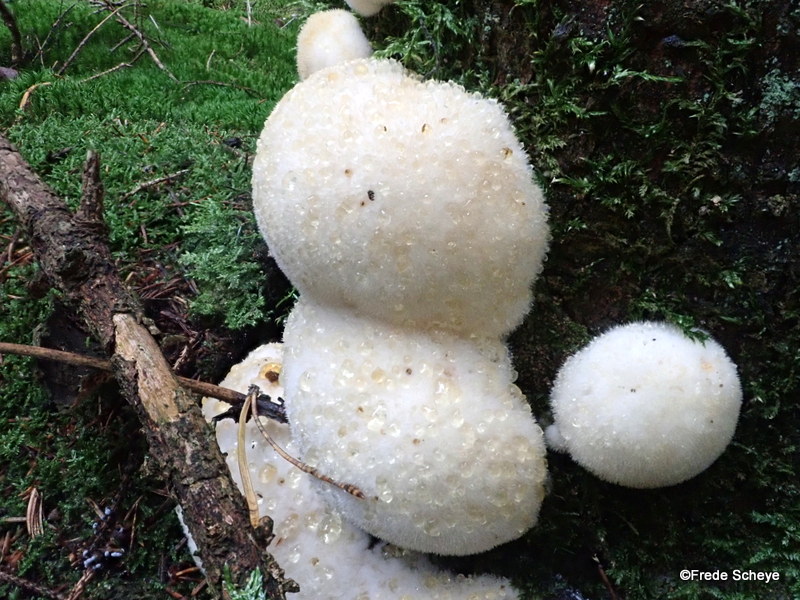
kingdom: Fungi
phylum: Basidiomycota
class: Agaricomycetes
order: Polyporales
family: Dacryobolaceae
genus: Postia
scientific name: Postia ptychogaster
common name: støvende kødporesvamp
